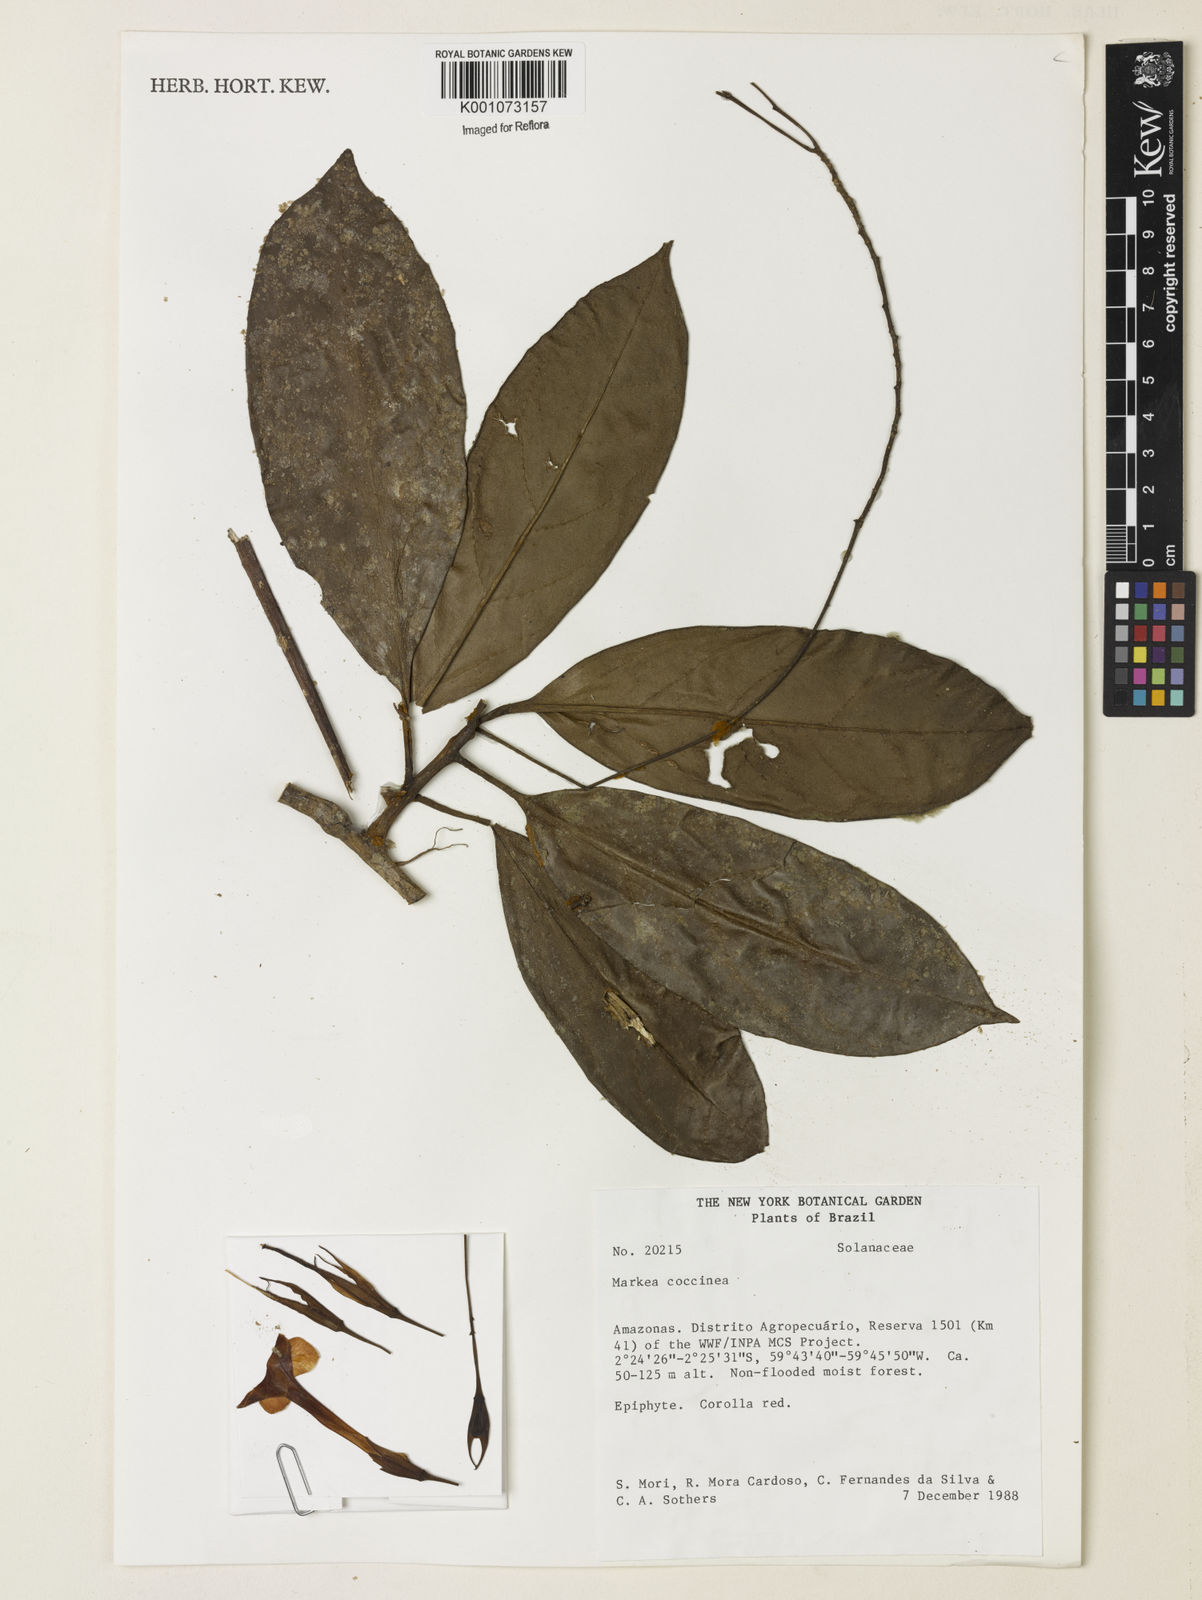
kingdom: Plantae
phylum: Tracheophyta
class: Magnoliopsida
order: Solanales
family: Solanaceae
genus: Markea
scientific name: Markea coccinea
